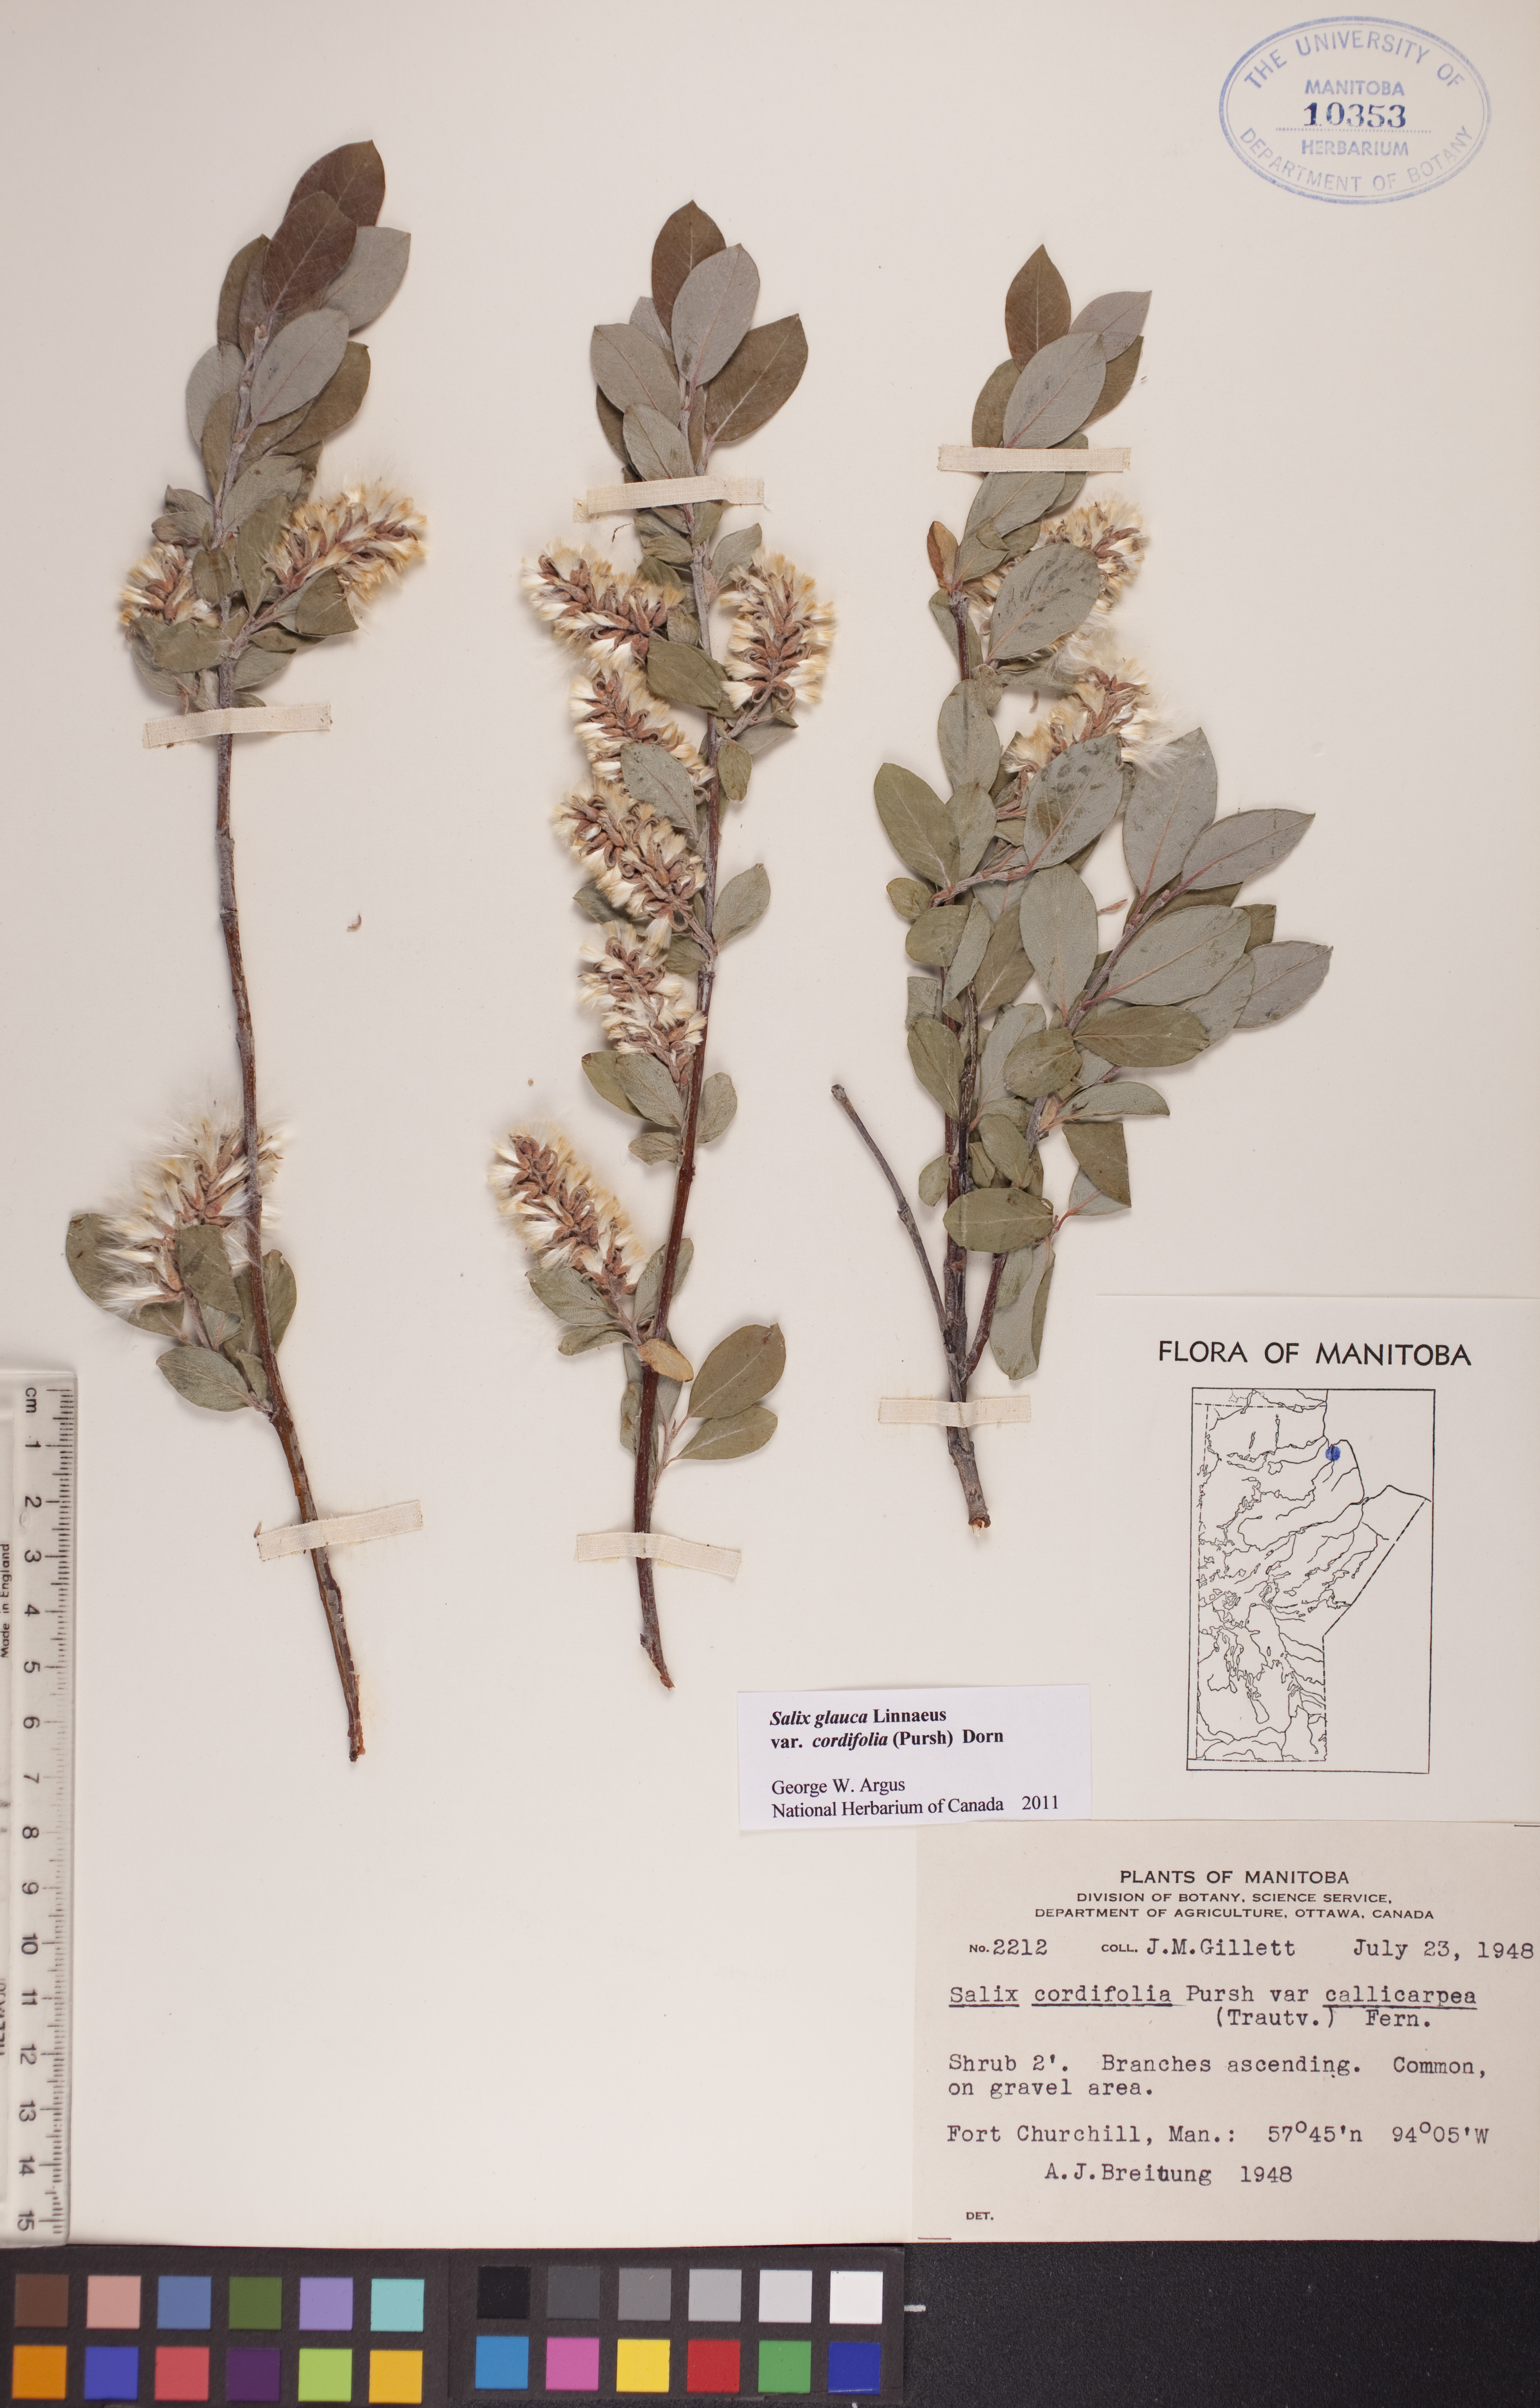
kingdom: Plantae
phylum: Tracheophyta
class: Magnoliopsida
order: Malpighiales
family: Salicaceae
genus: Salix
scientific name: Salix glauca
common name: Glaucous willow
